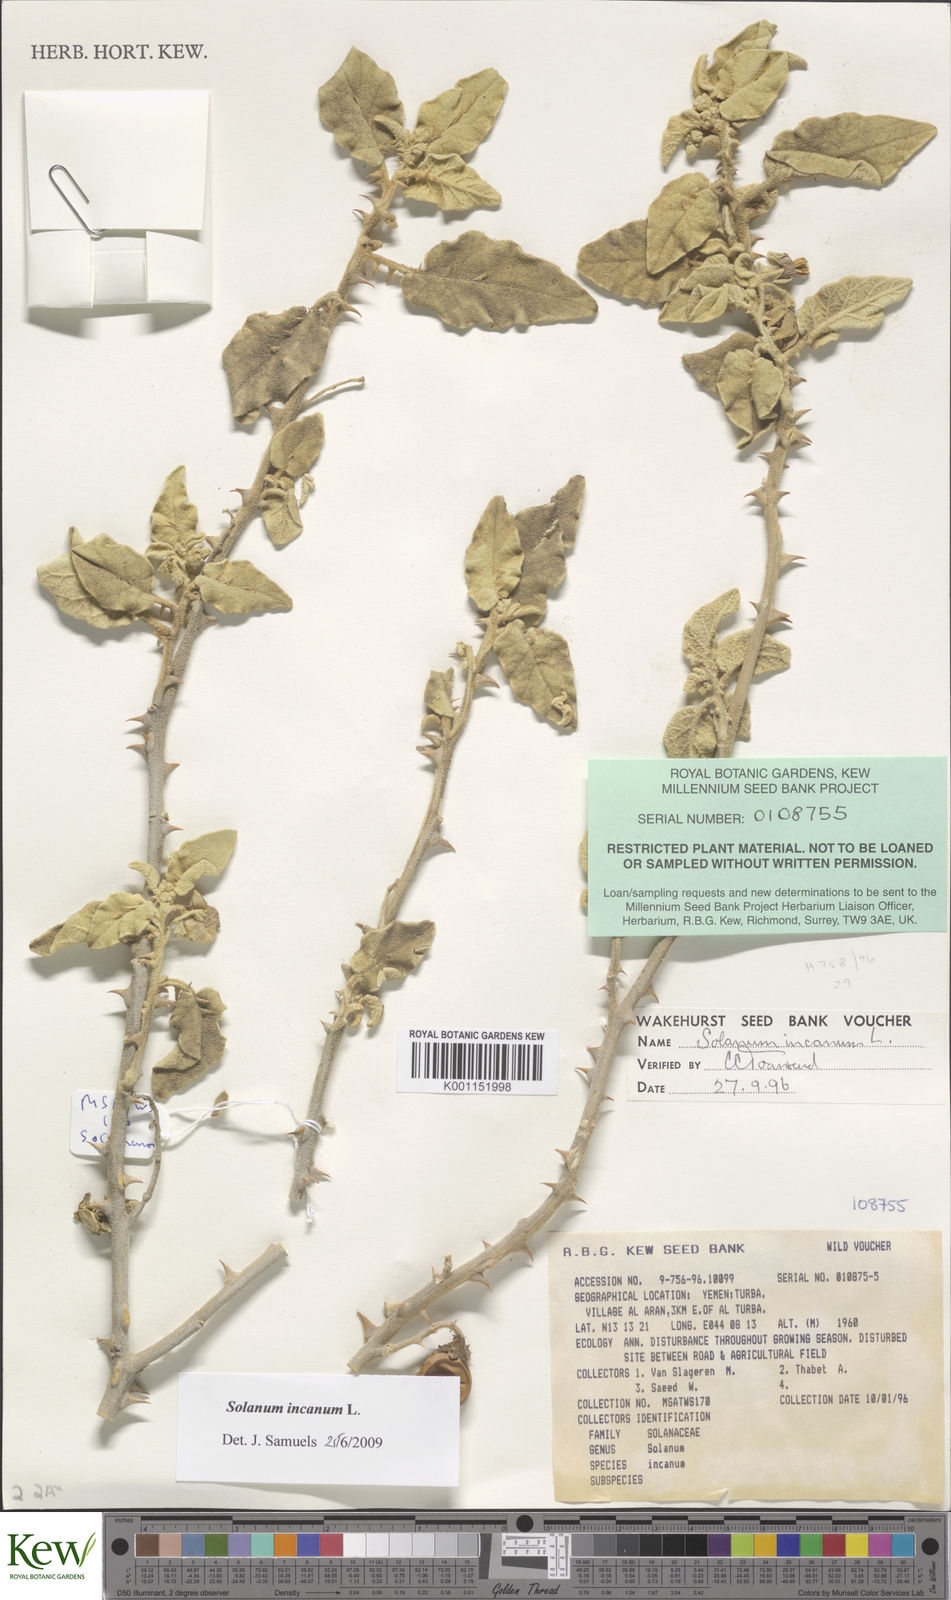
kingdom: Plantae
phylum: Tracheophyta
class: Magnoliopsida
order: Solanales
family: Solanaceae
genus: Solanum
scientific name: Solanum incanum
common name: Bitter apple
